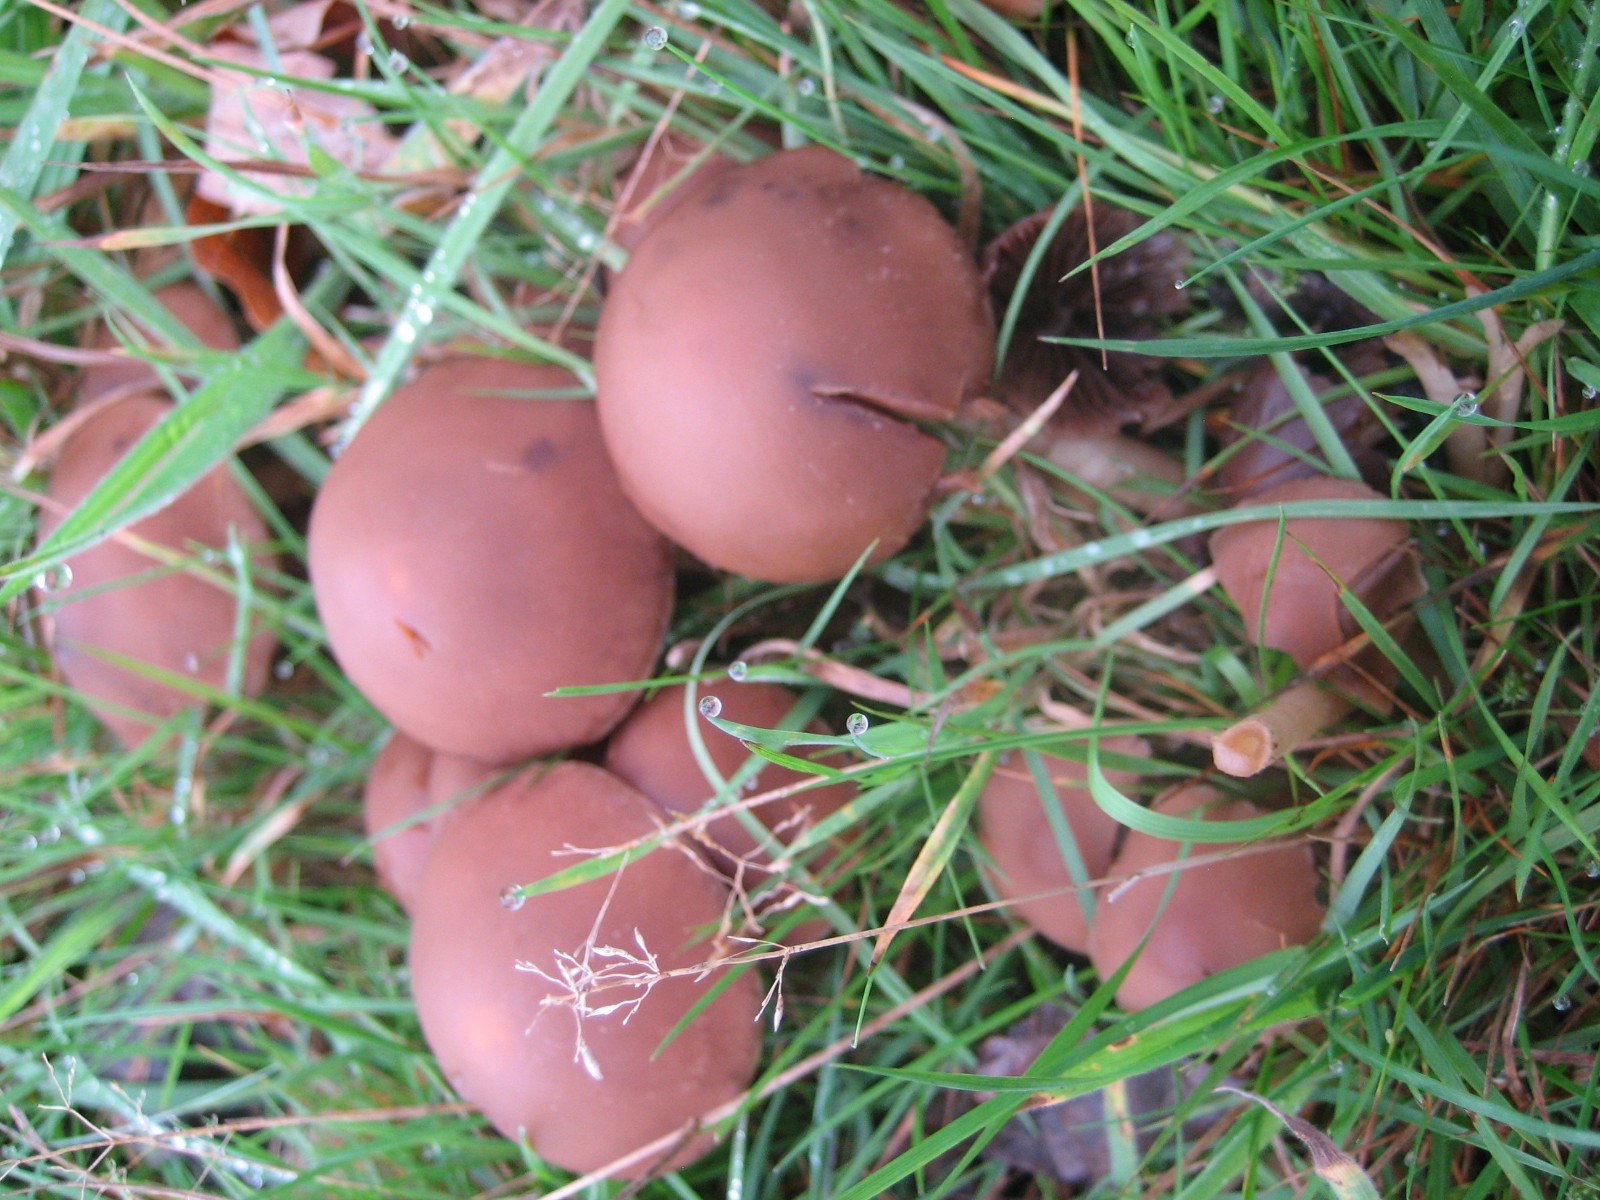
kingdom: Fungi
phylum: Basidiomycota
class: Agaricomycetes
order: Agaricales
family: Psathyrellaceae
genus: Psathyrella
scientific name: Psathyrella
